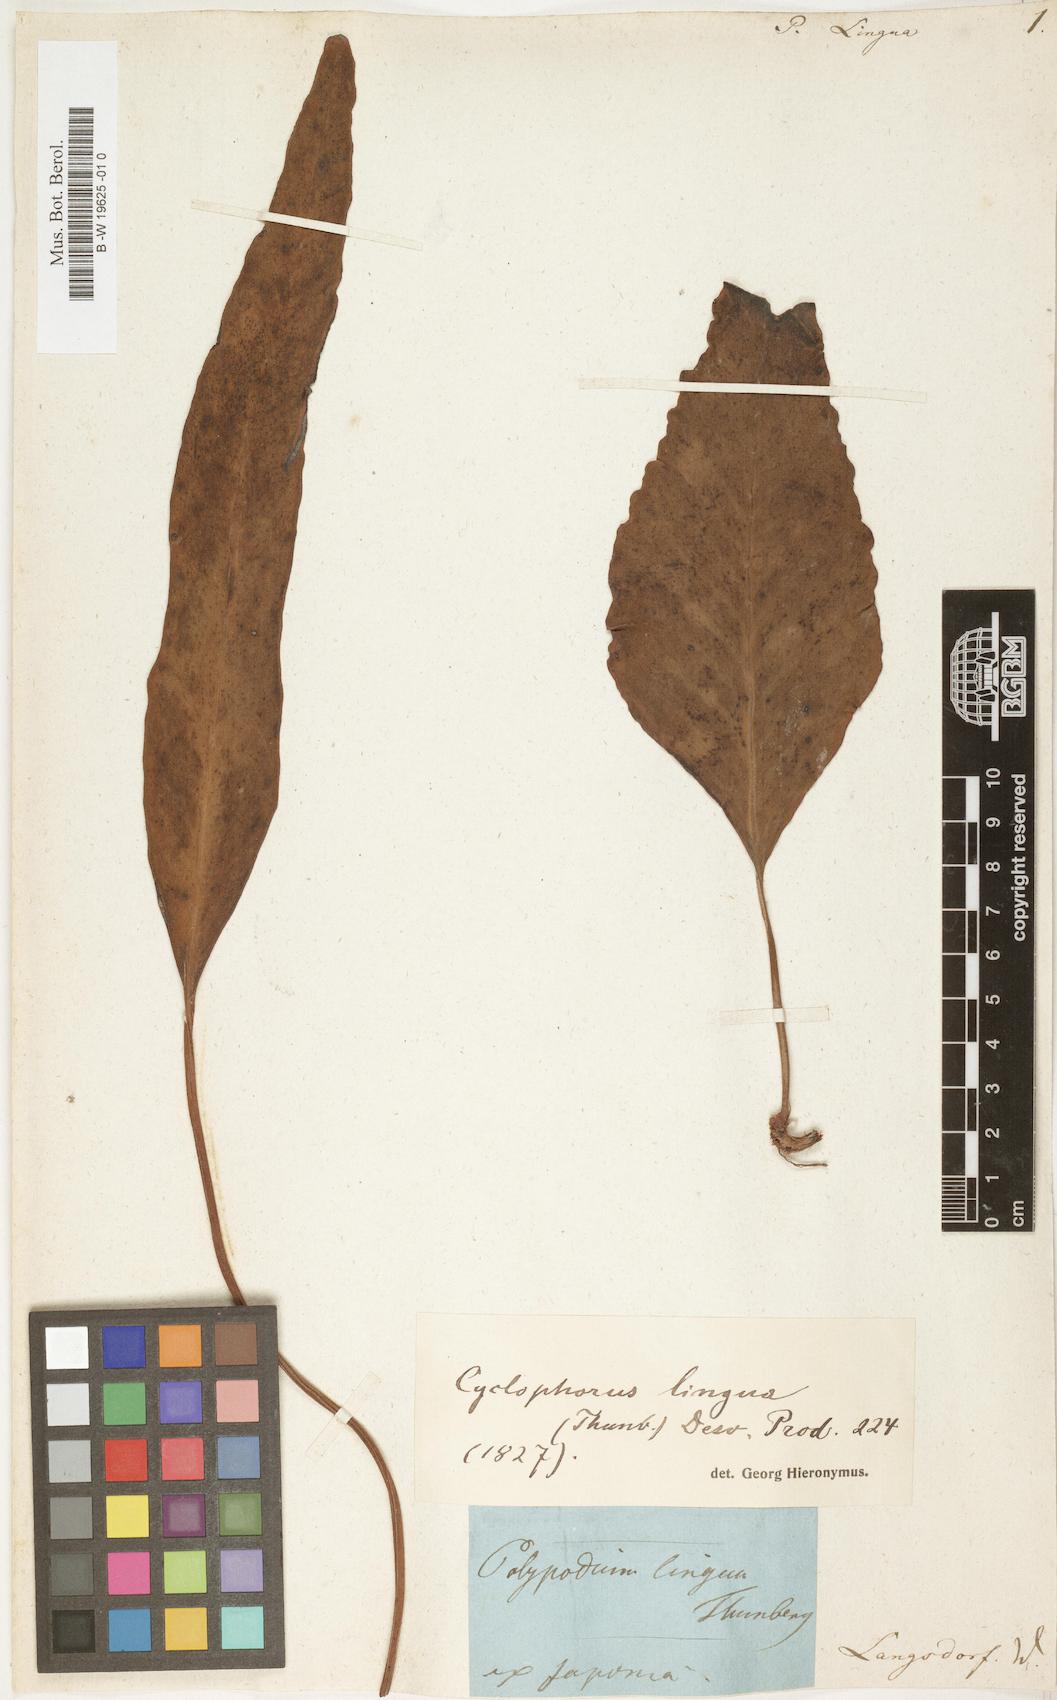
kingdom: Plantae
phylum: Tracheophyta
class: Polypodiopsida
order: Polypodiales
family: Polypodiaceae
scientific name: Polypodiaceae
